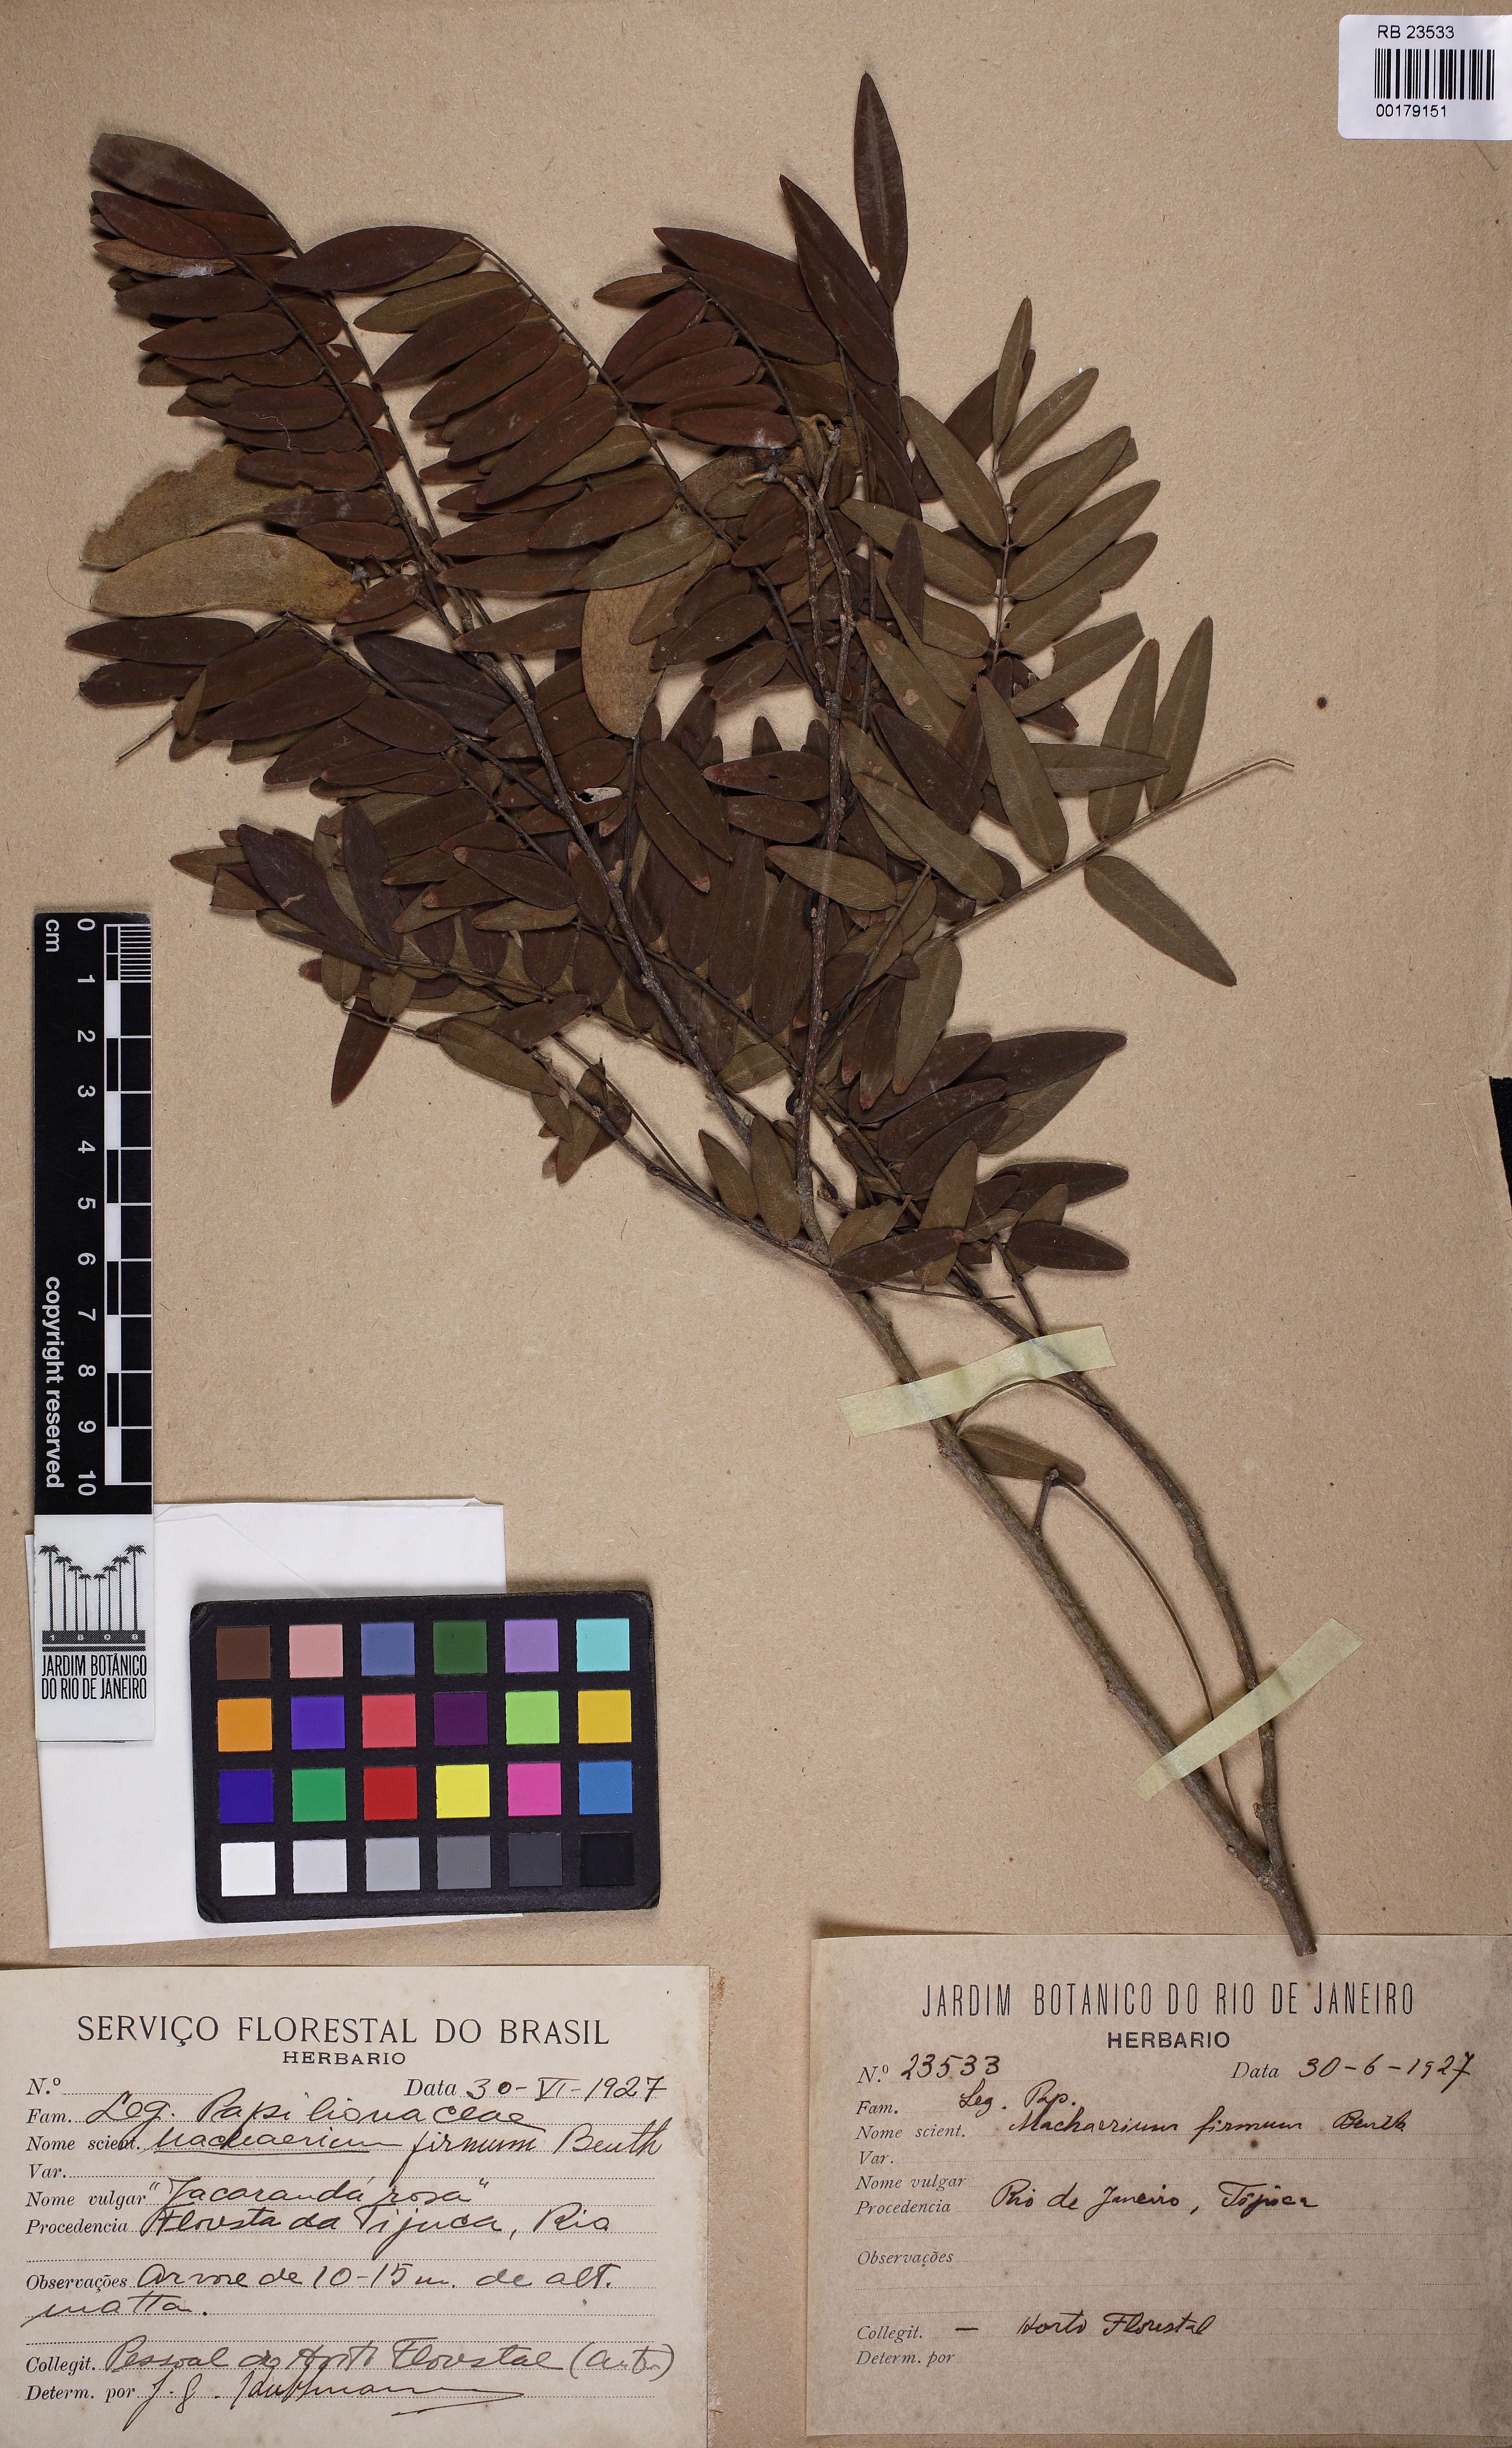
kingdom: Plantae
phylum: Tracheophyta
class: Magnoliopsida
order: Fabales
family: Fabaceae
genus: Machaerium
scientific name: Machaerium firmum
